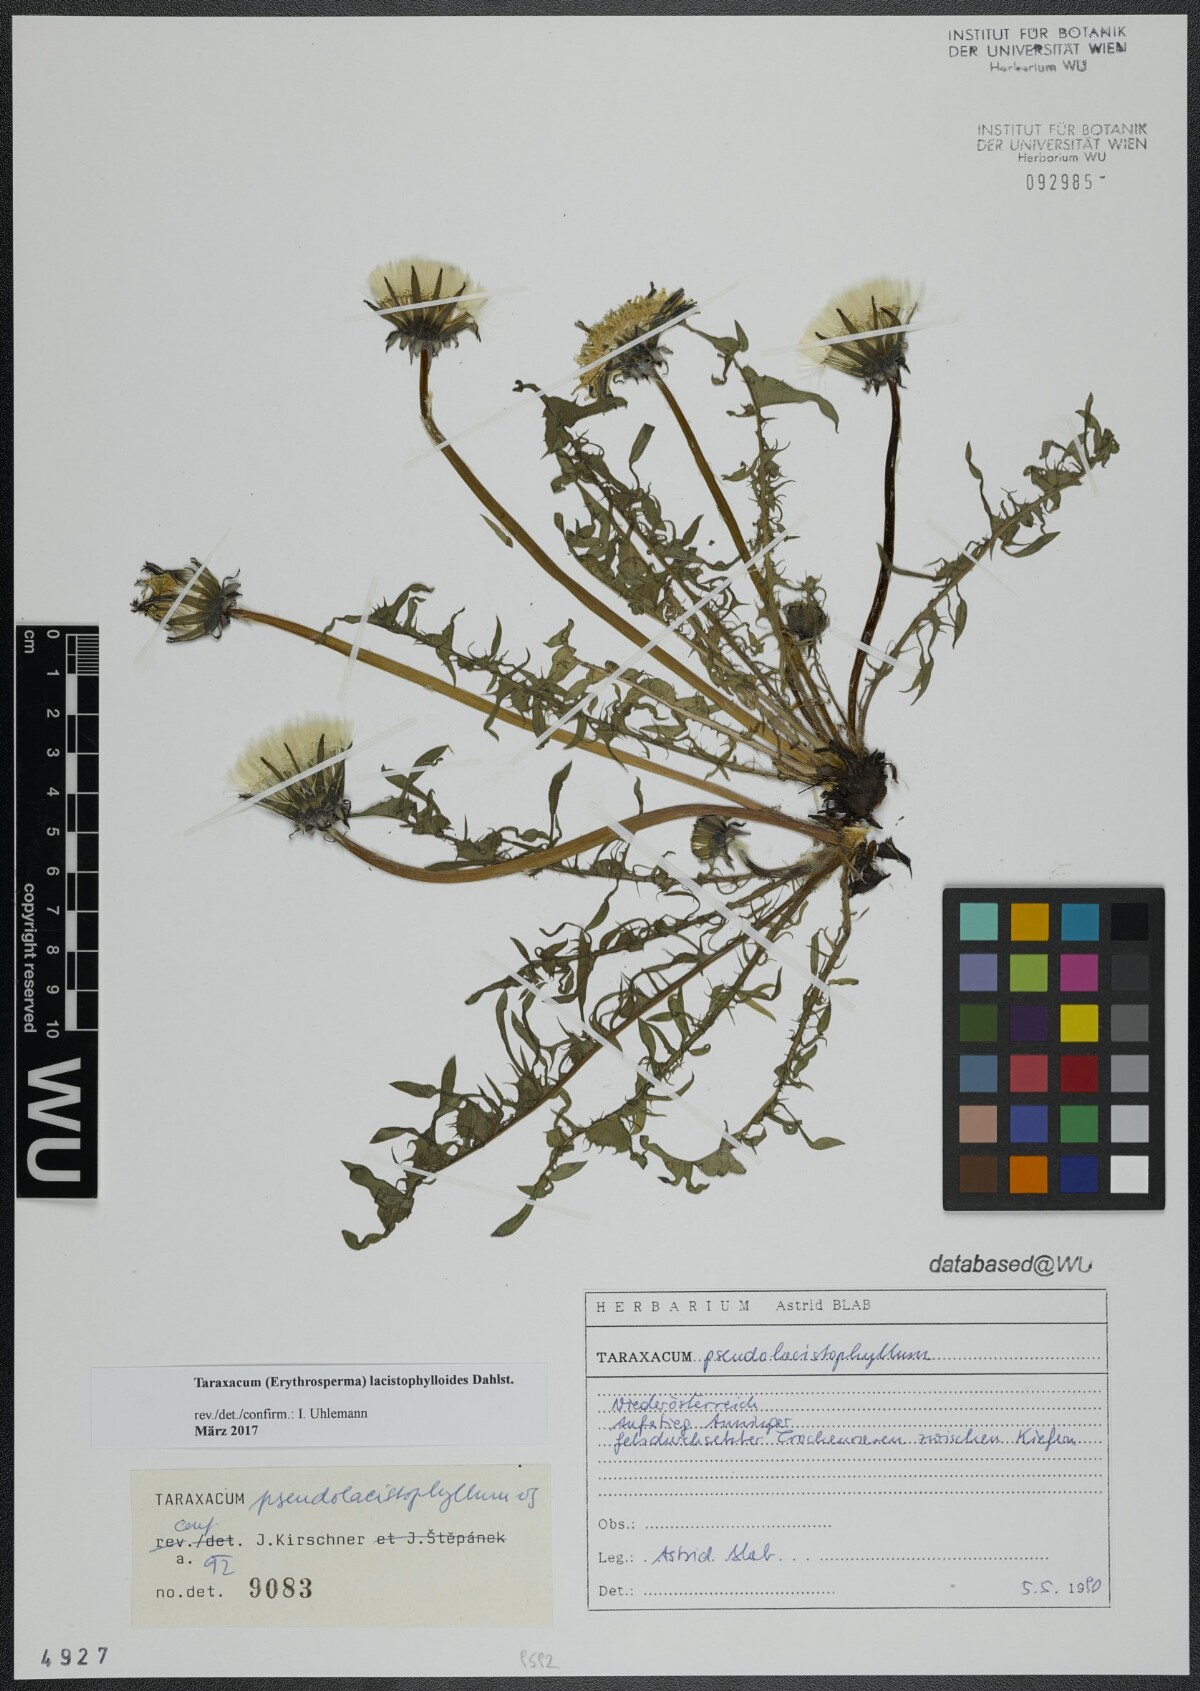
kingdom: Plantae
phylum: Tracheophyta
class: Magnoliopsida
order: Asterales
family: Asteraceae
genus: Taraxacum
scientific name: Taraxacum lacistophylloides
